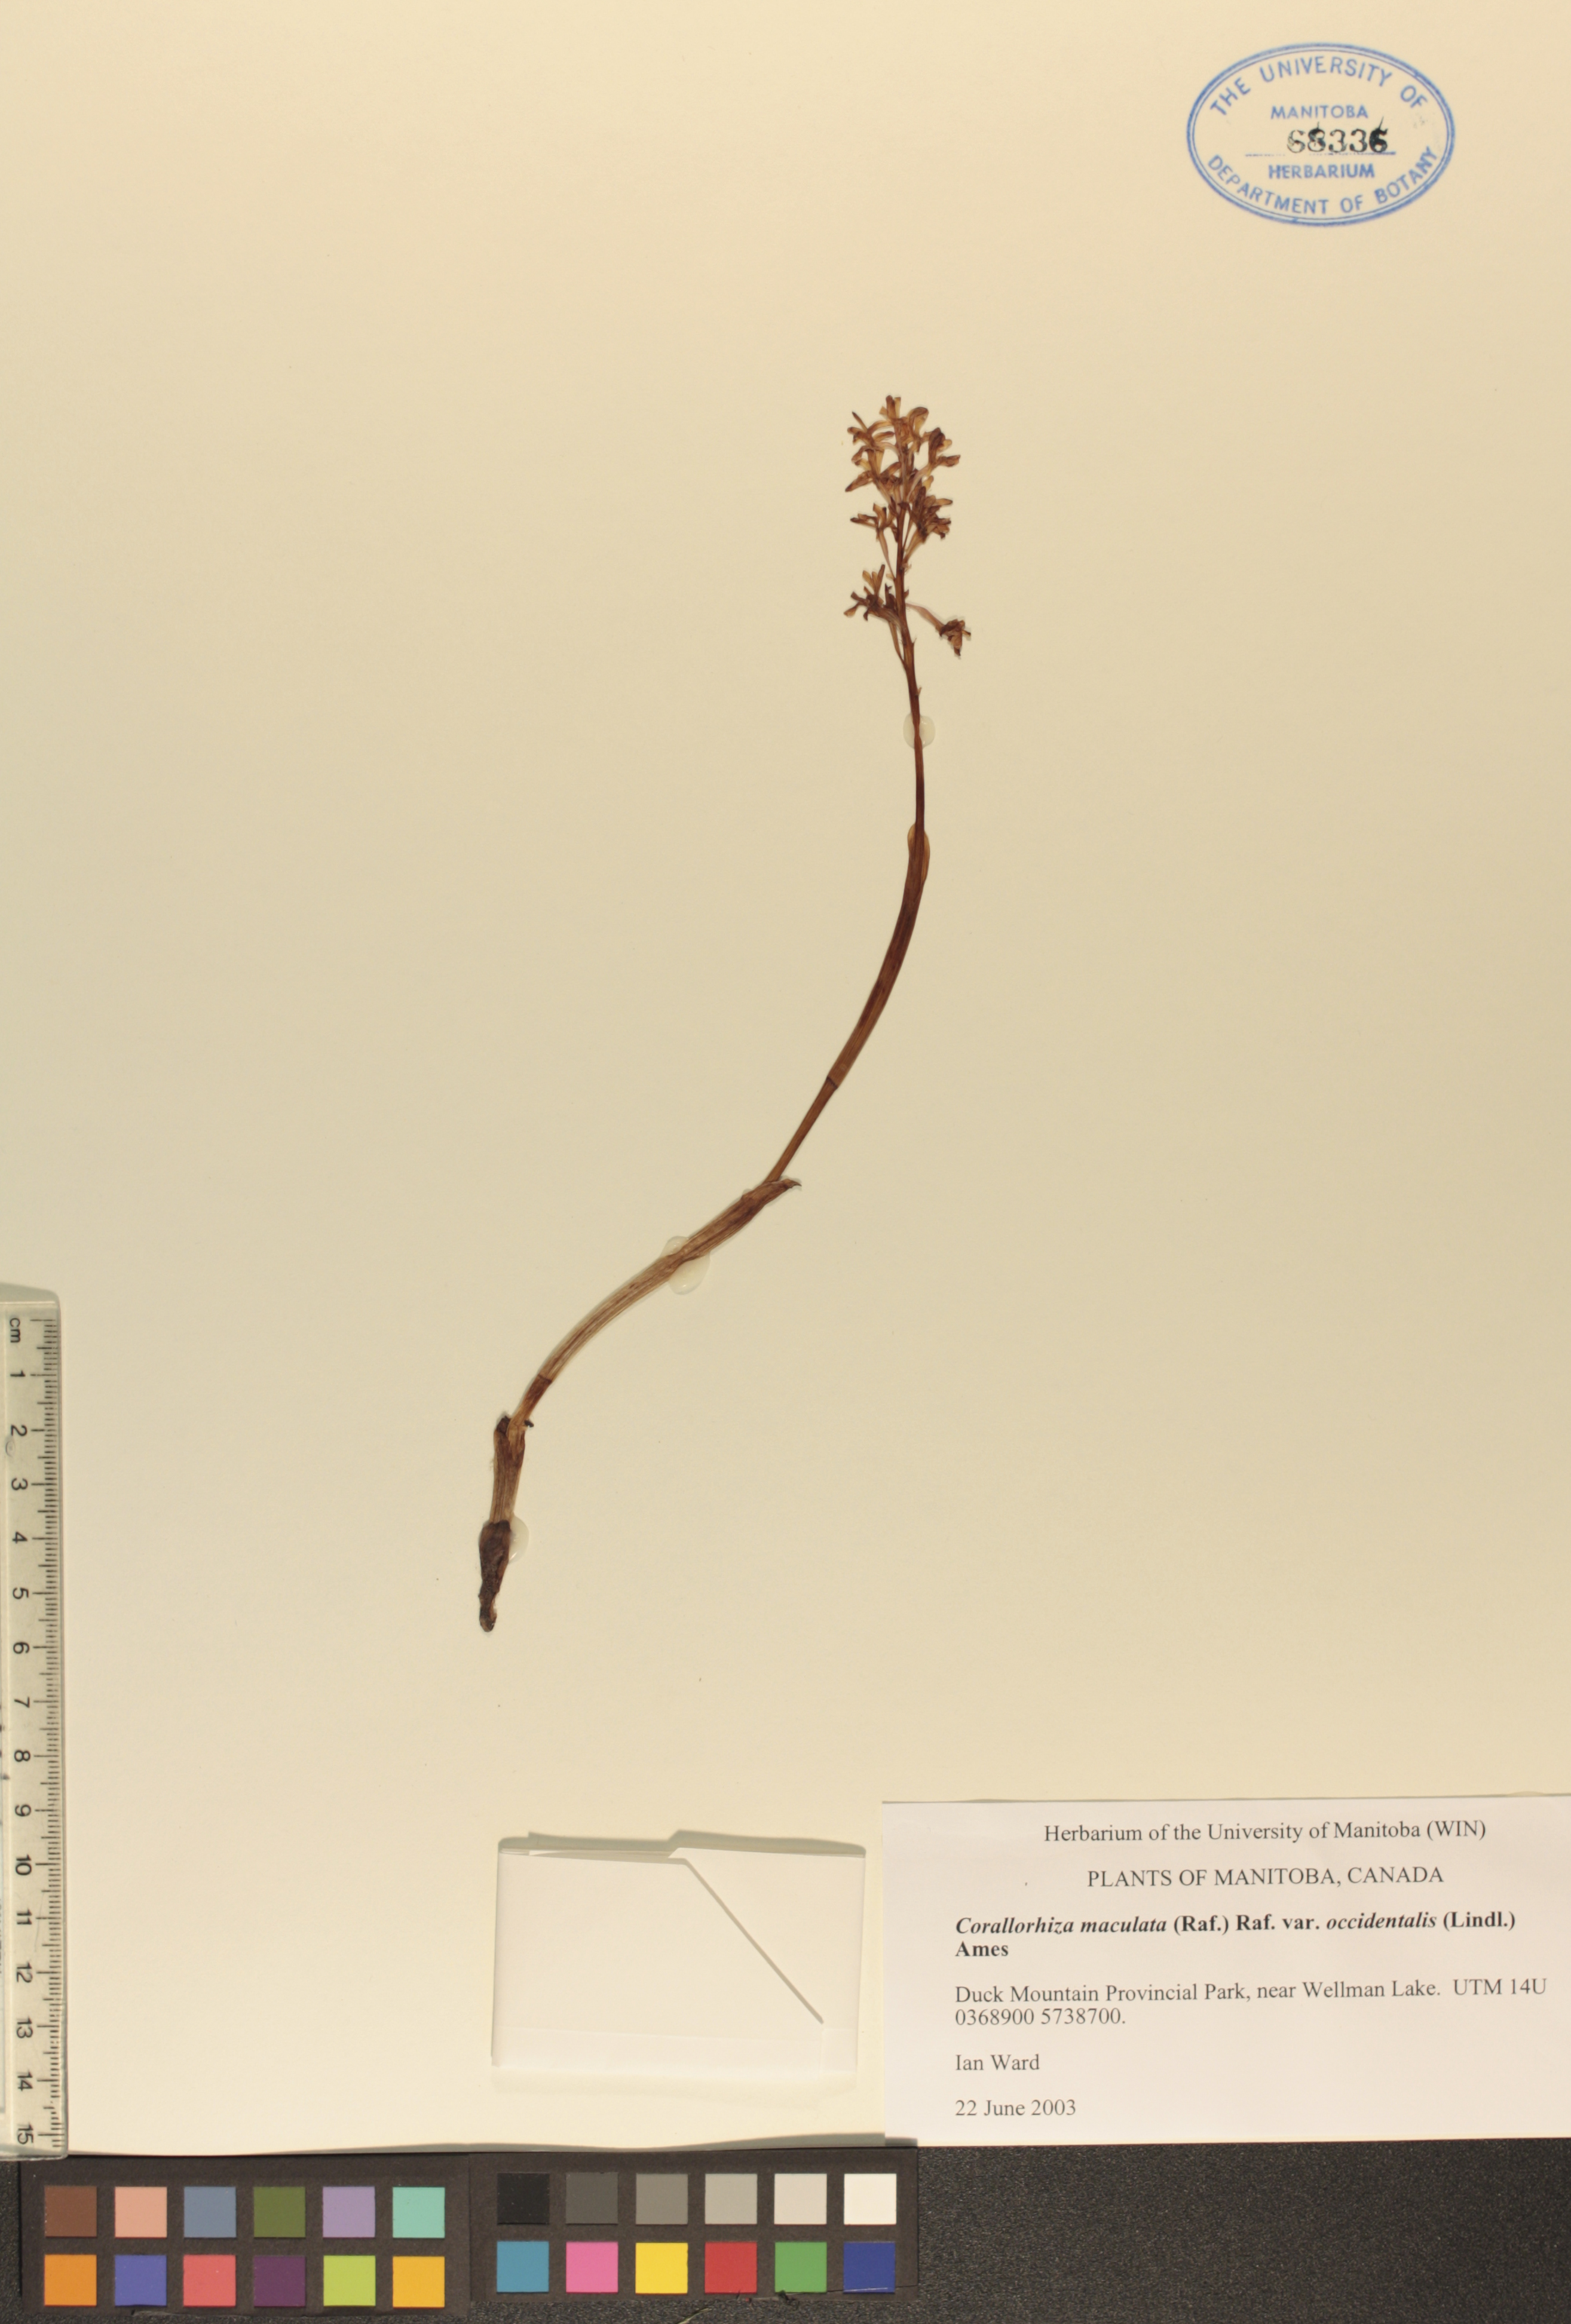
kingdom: Plantae
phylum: Tracheophyta
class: Liliopsida
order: Asparagales
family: Orchidaceae
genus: Corallorhiza
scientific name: Corallorhiza maculata
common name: Spotted coralroot
